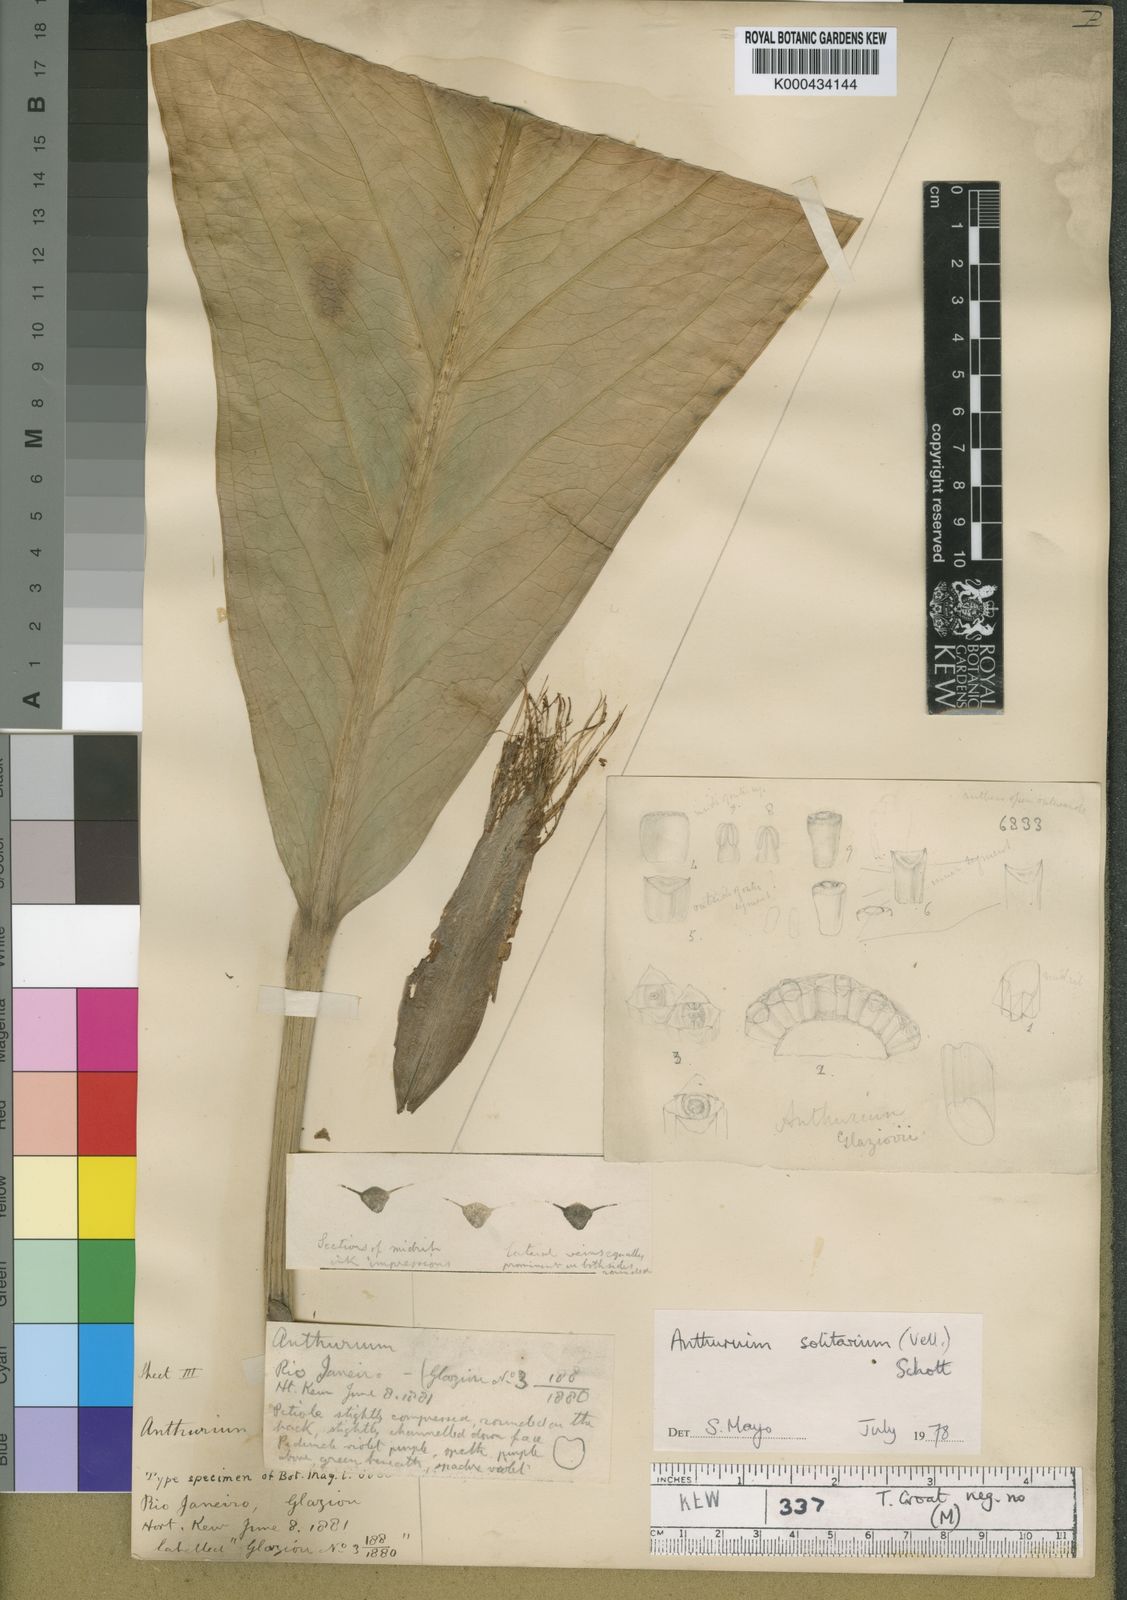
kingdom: Plantae
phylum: Tracheophyta
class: Liliopsida
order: Alismatales
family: Araceae
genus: Anthurium
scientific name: Anthurium solitarium
